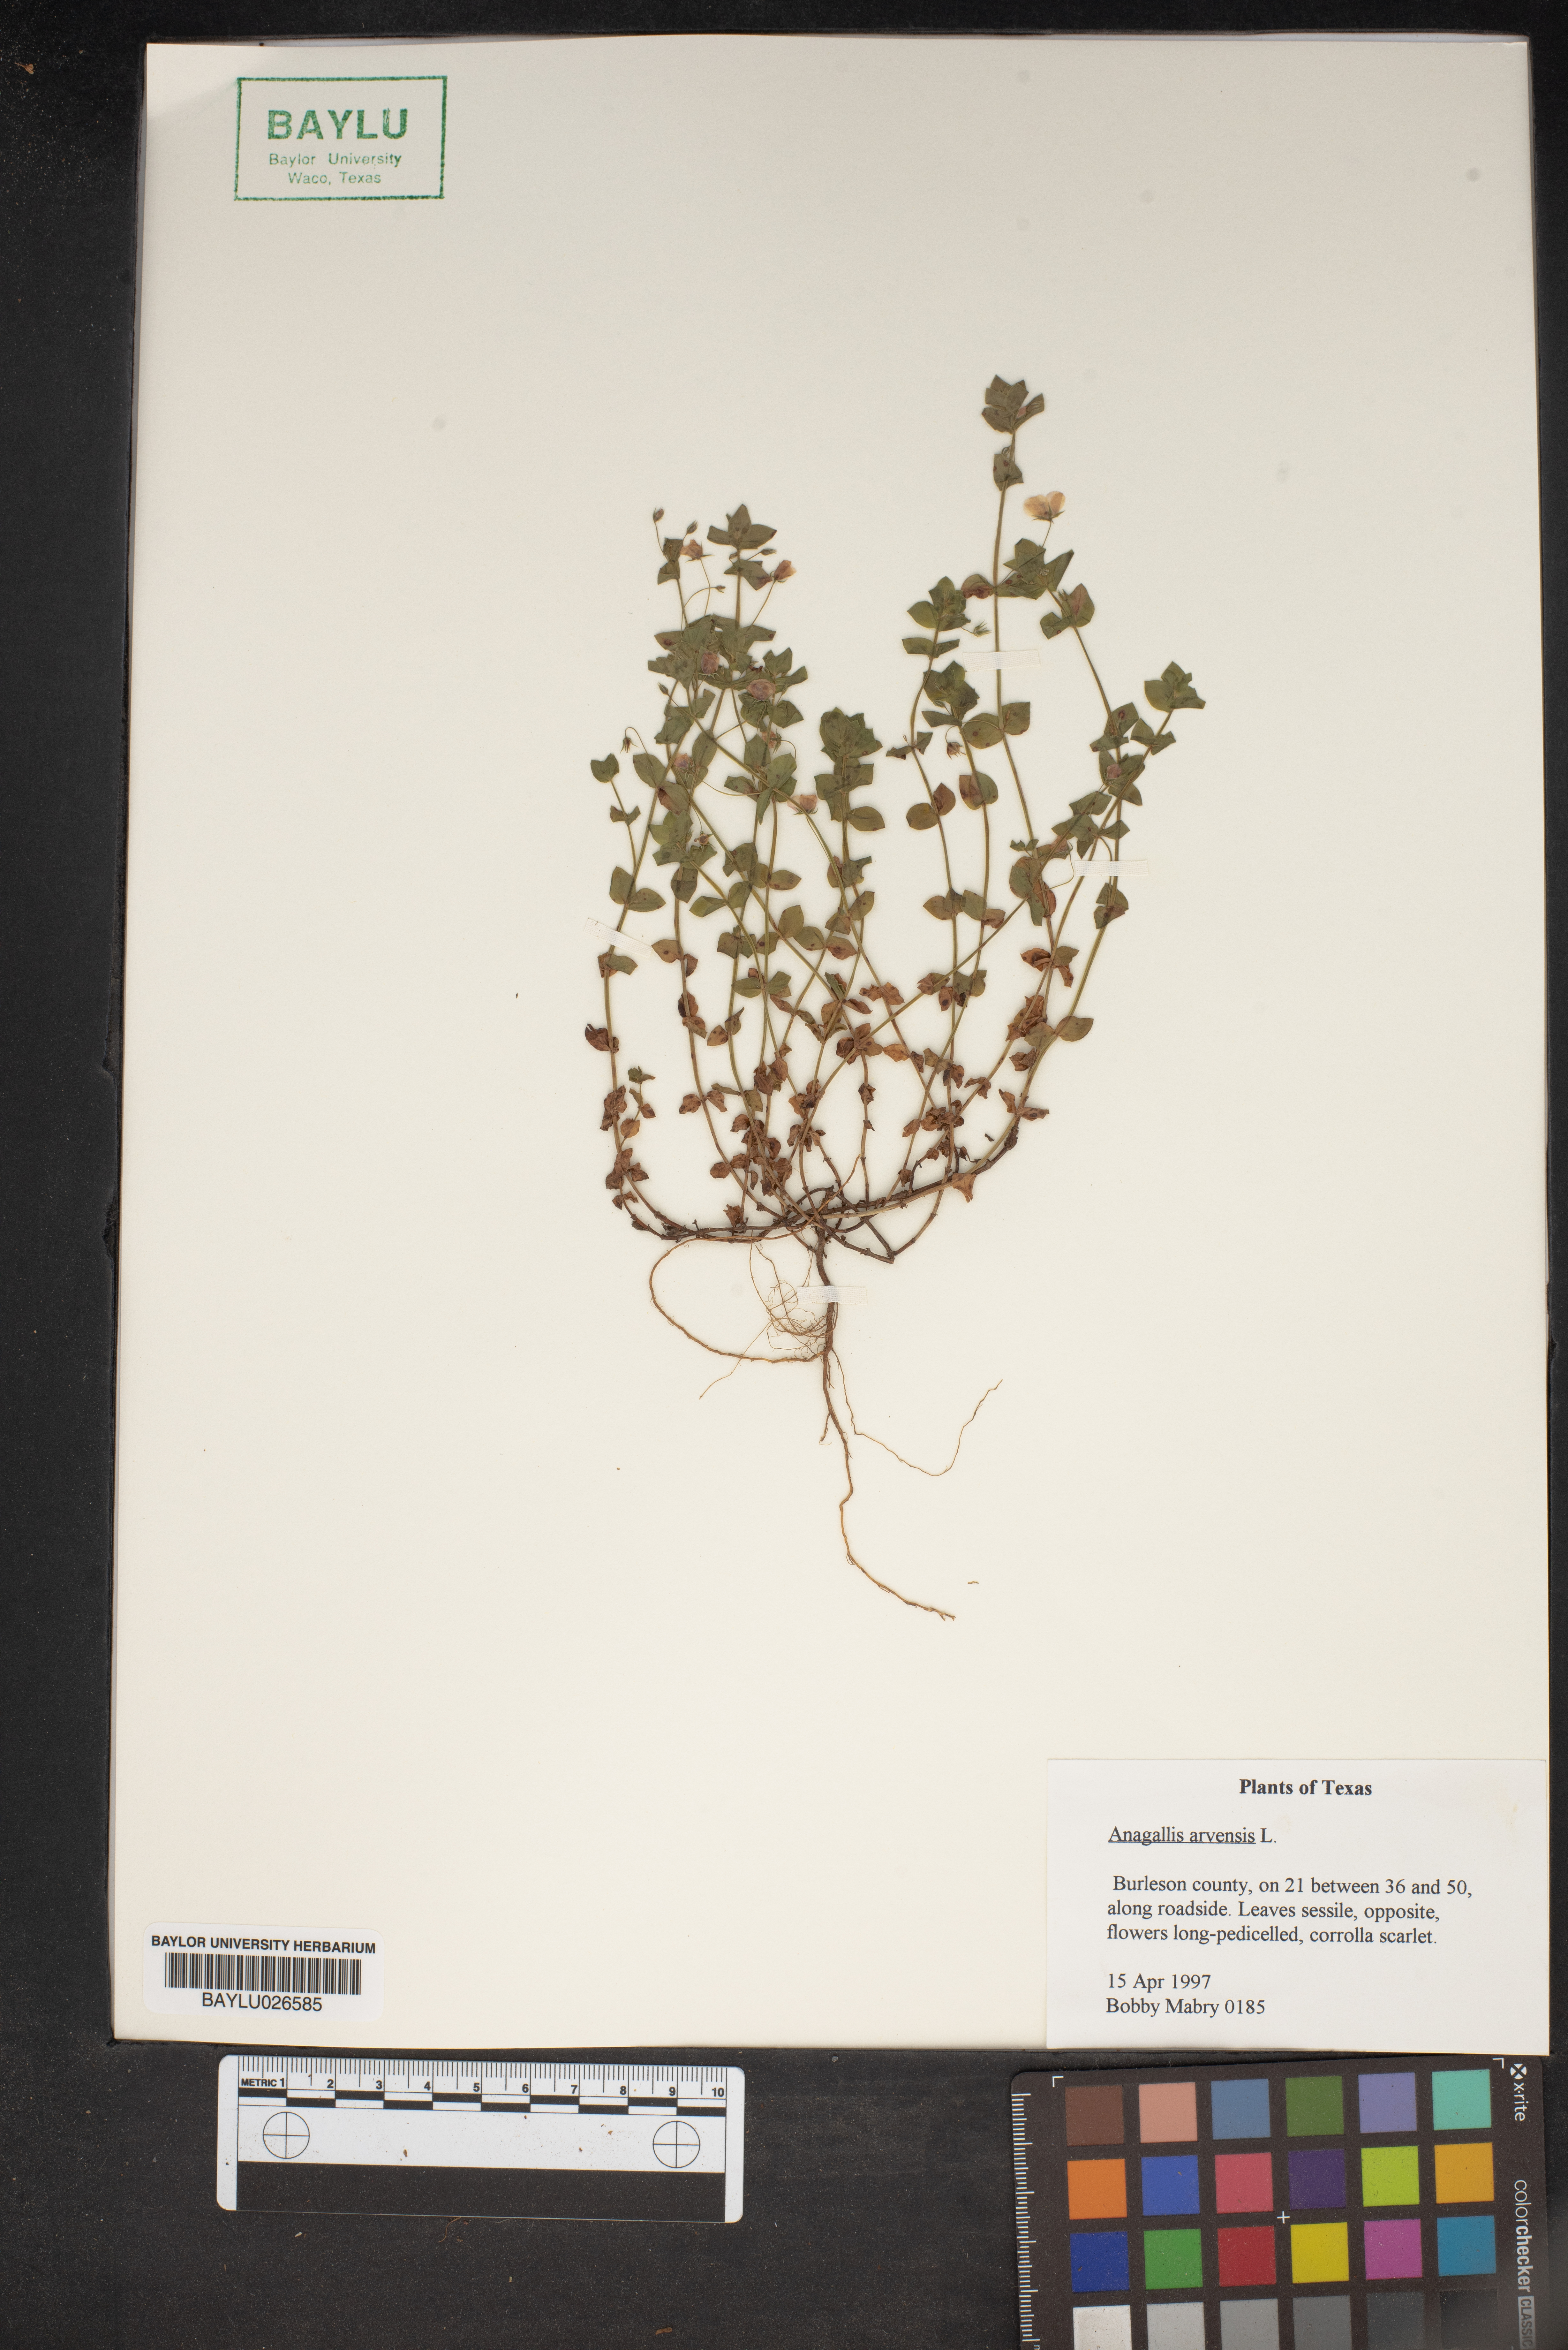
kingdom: Plantae
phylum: Tracheophyta
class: Magnoliopsida
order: Ericales
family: Primulaceae
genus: Lysimachia
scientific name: Lysimachia arvensis
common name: Scarlet pimpernel
